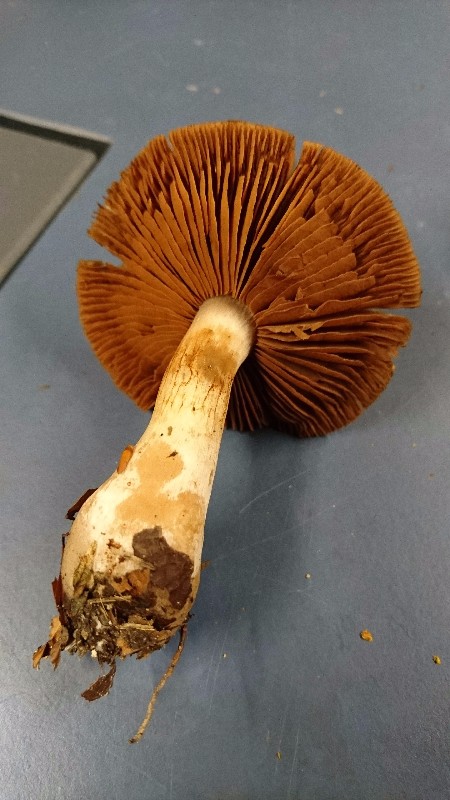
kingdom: Fungi
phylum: Basidiomycota
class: Agaricomycetes
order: Agaricales
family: Cortinariaceae
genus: Cortinarius
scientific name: Cortinarius
